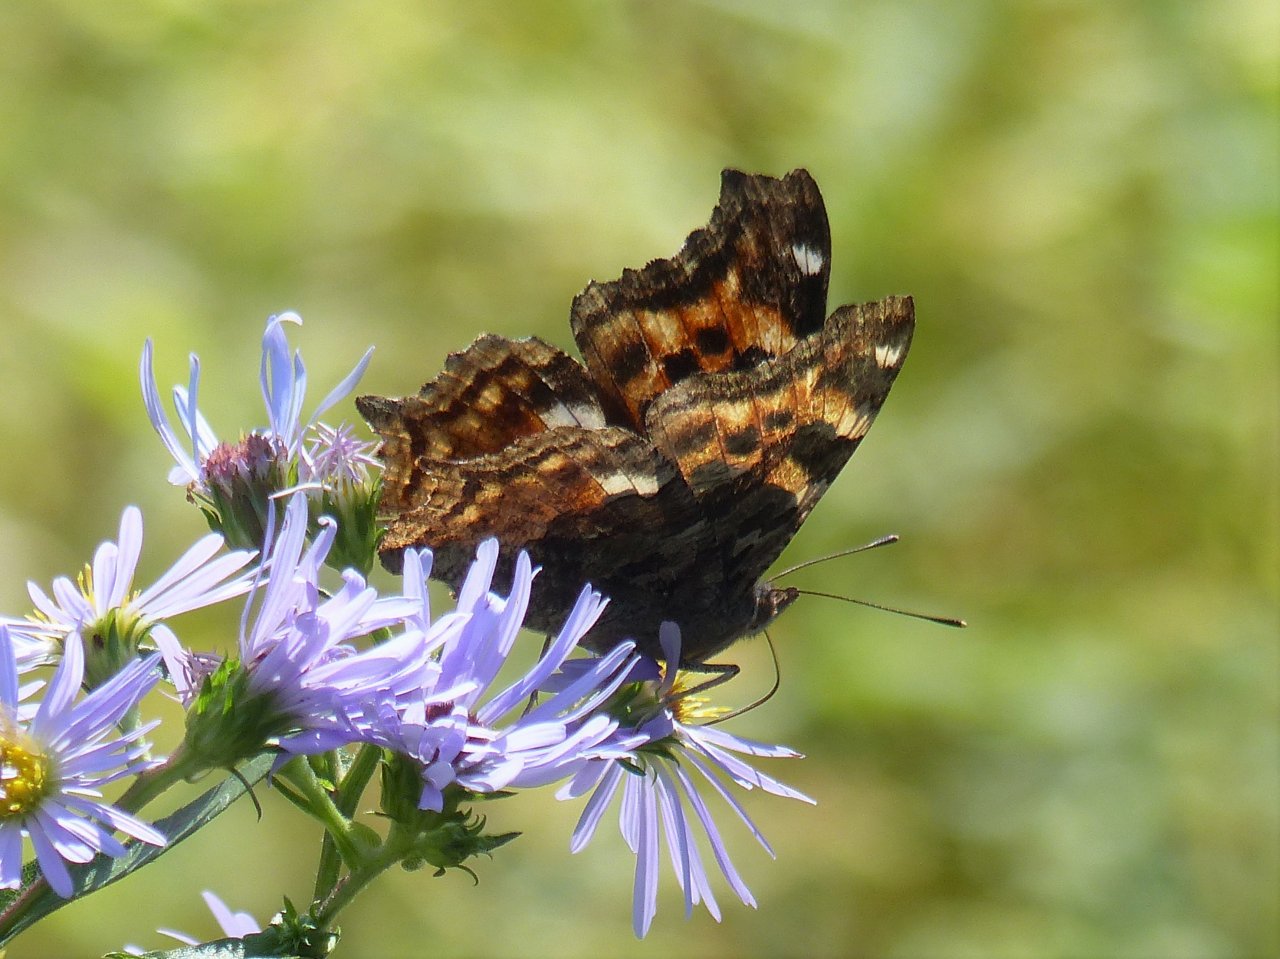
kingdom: Animalia
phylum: Arthropoda
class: Insecta
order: Lepidoptera
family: Nymphalidae
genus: Polygonia
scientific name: Polygonia vaualbum
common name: Compton Tortoiseshell
